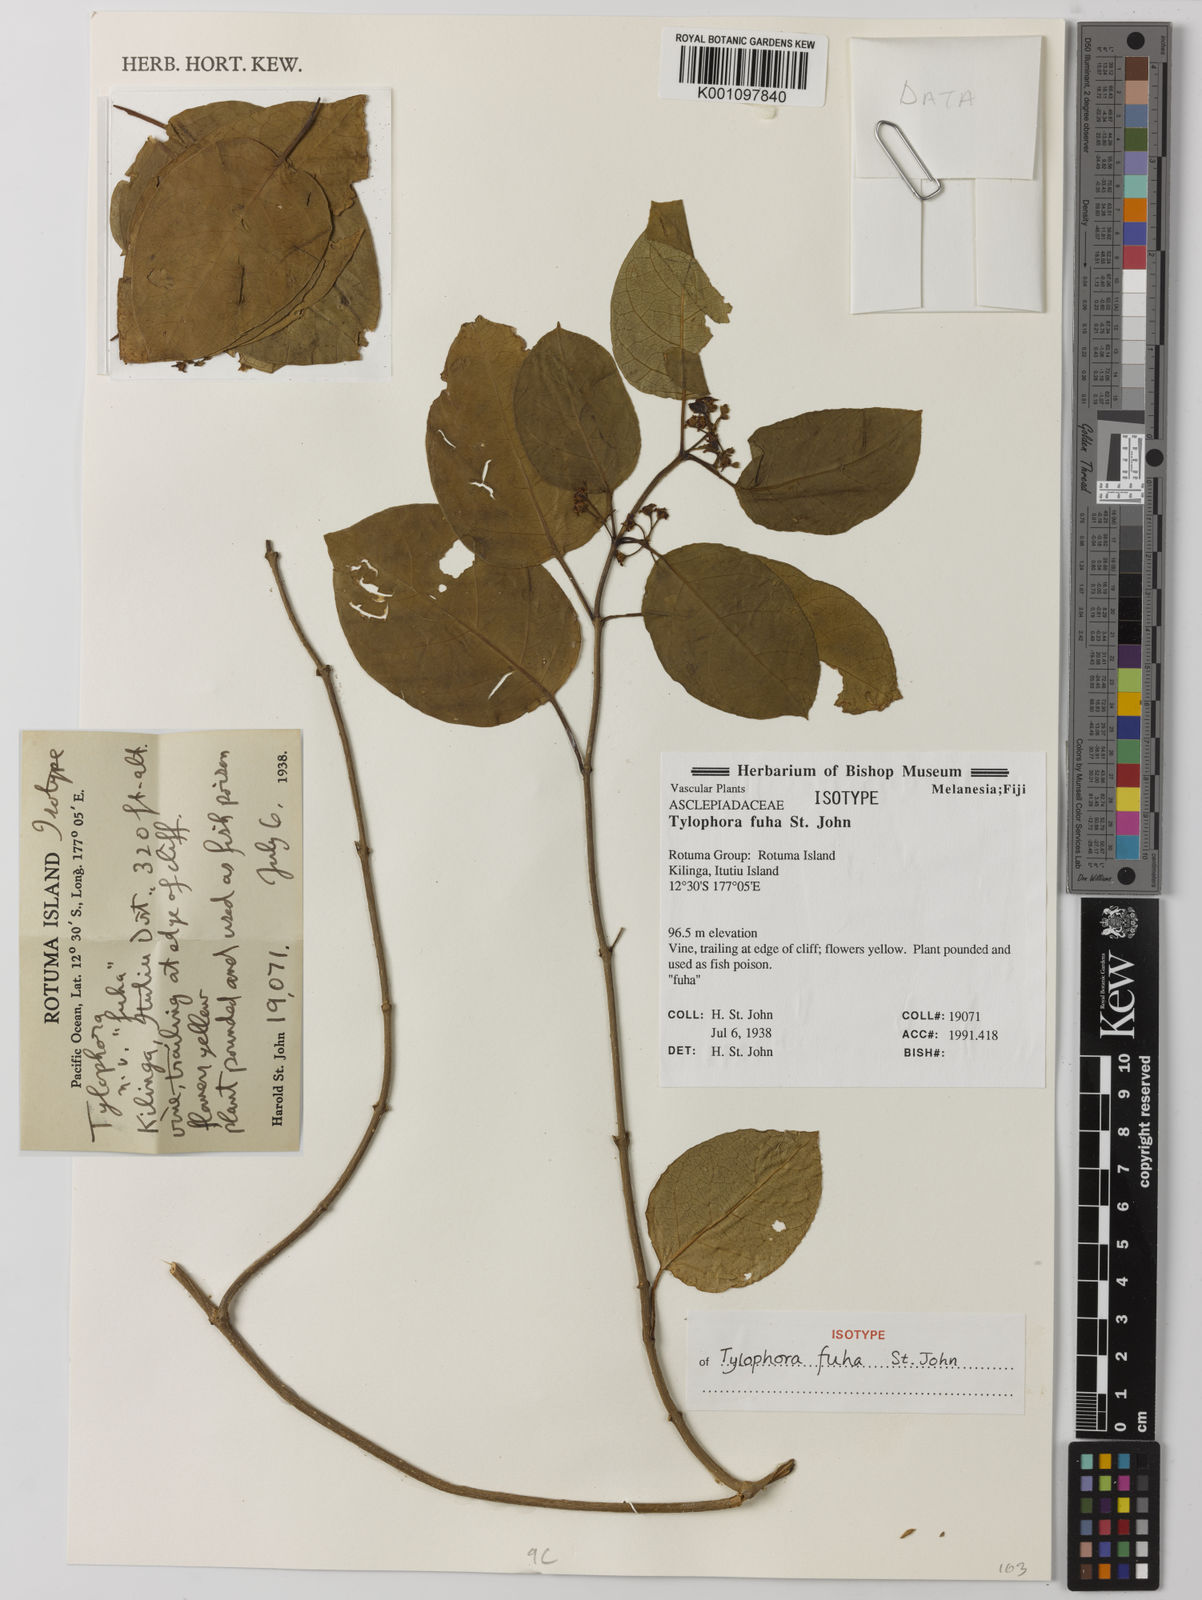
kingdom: Plantae
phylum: Tracheophyta
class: Magnoliopsida
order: Gentianales
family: Apocynaceae
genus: Vincetoxicum
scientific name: Vincetoxicum
